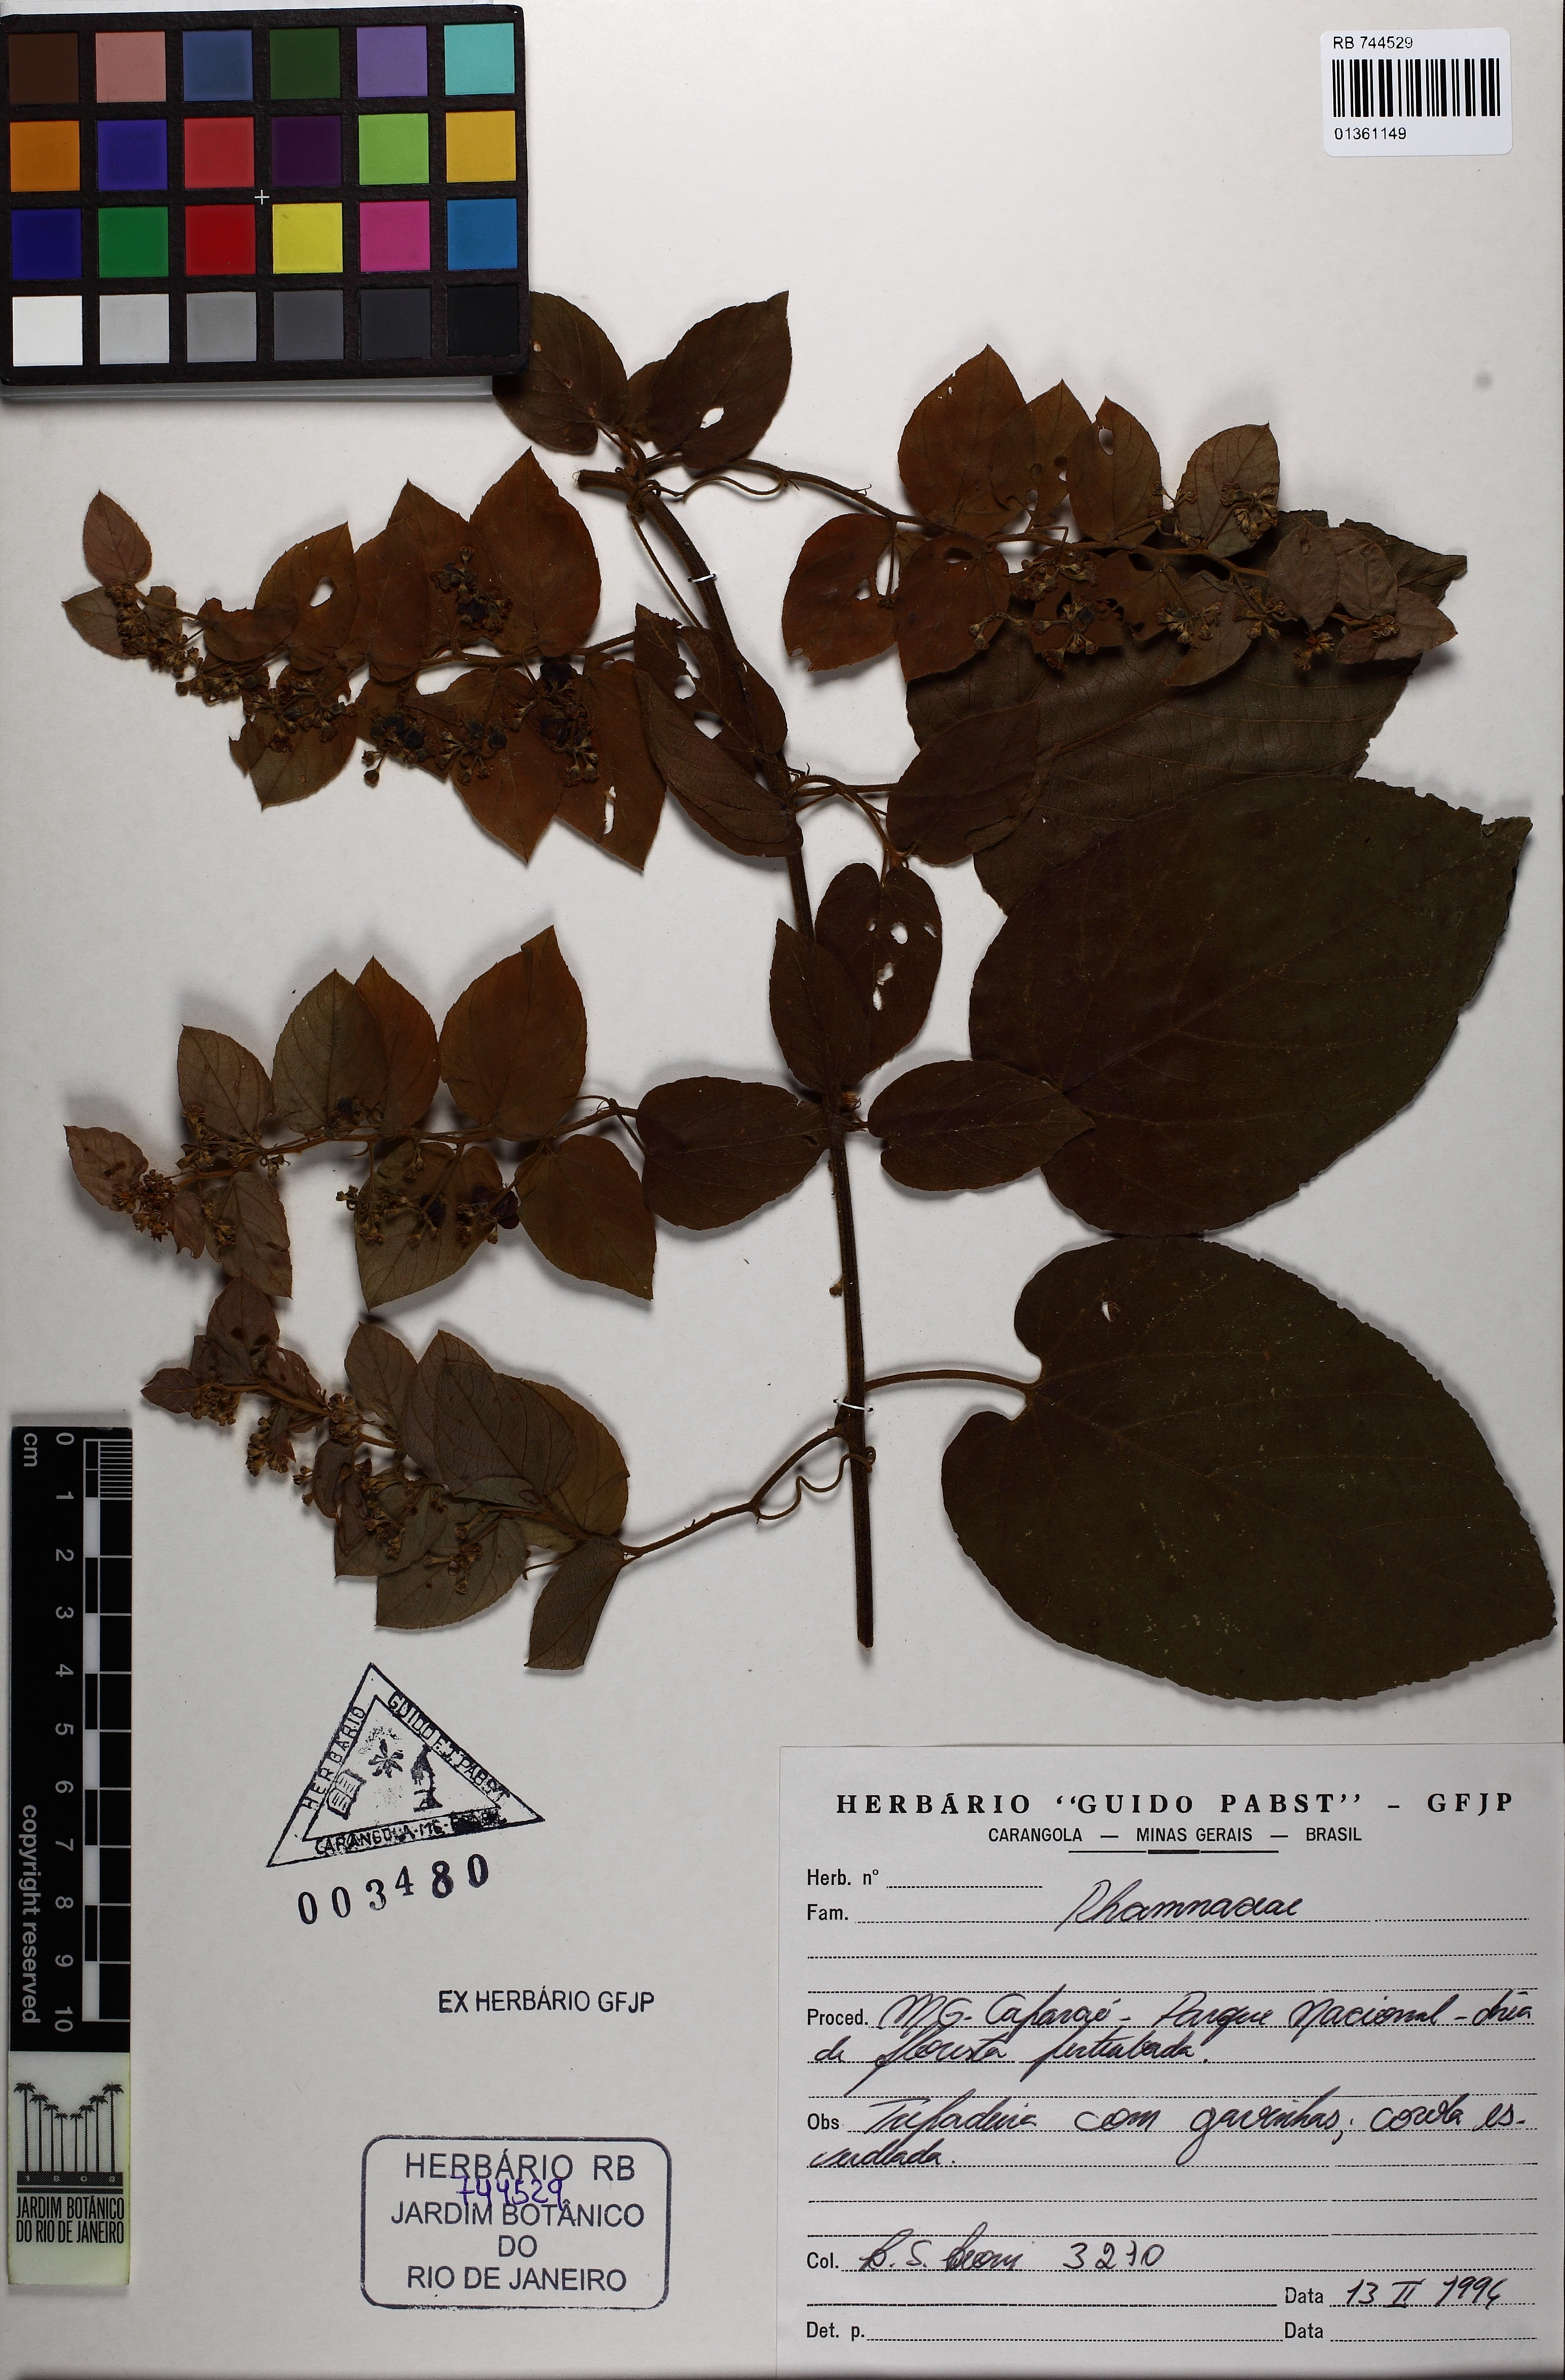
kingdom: Plantae
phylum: Tracheophyta
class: Magnoliopsida
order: Rosales
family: Rhamnaceae
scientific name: Rhamnaceae
